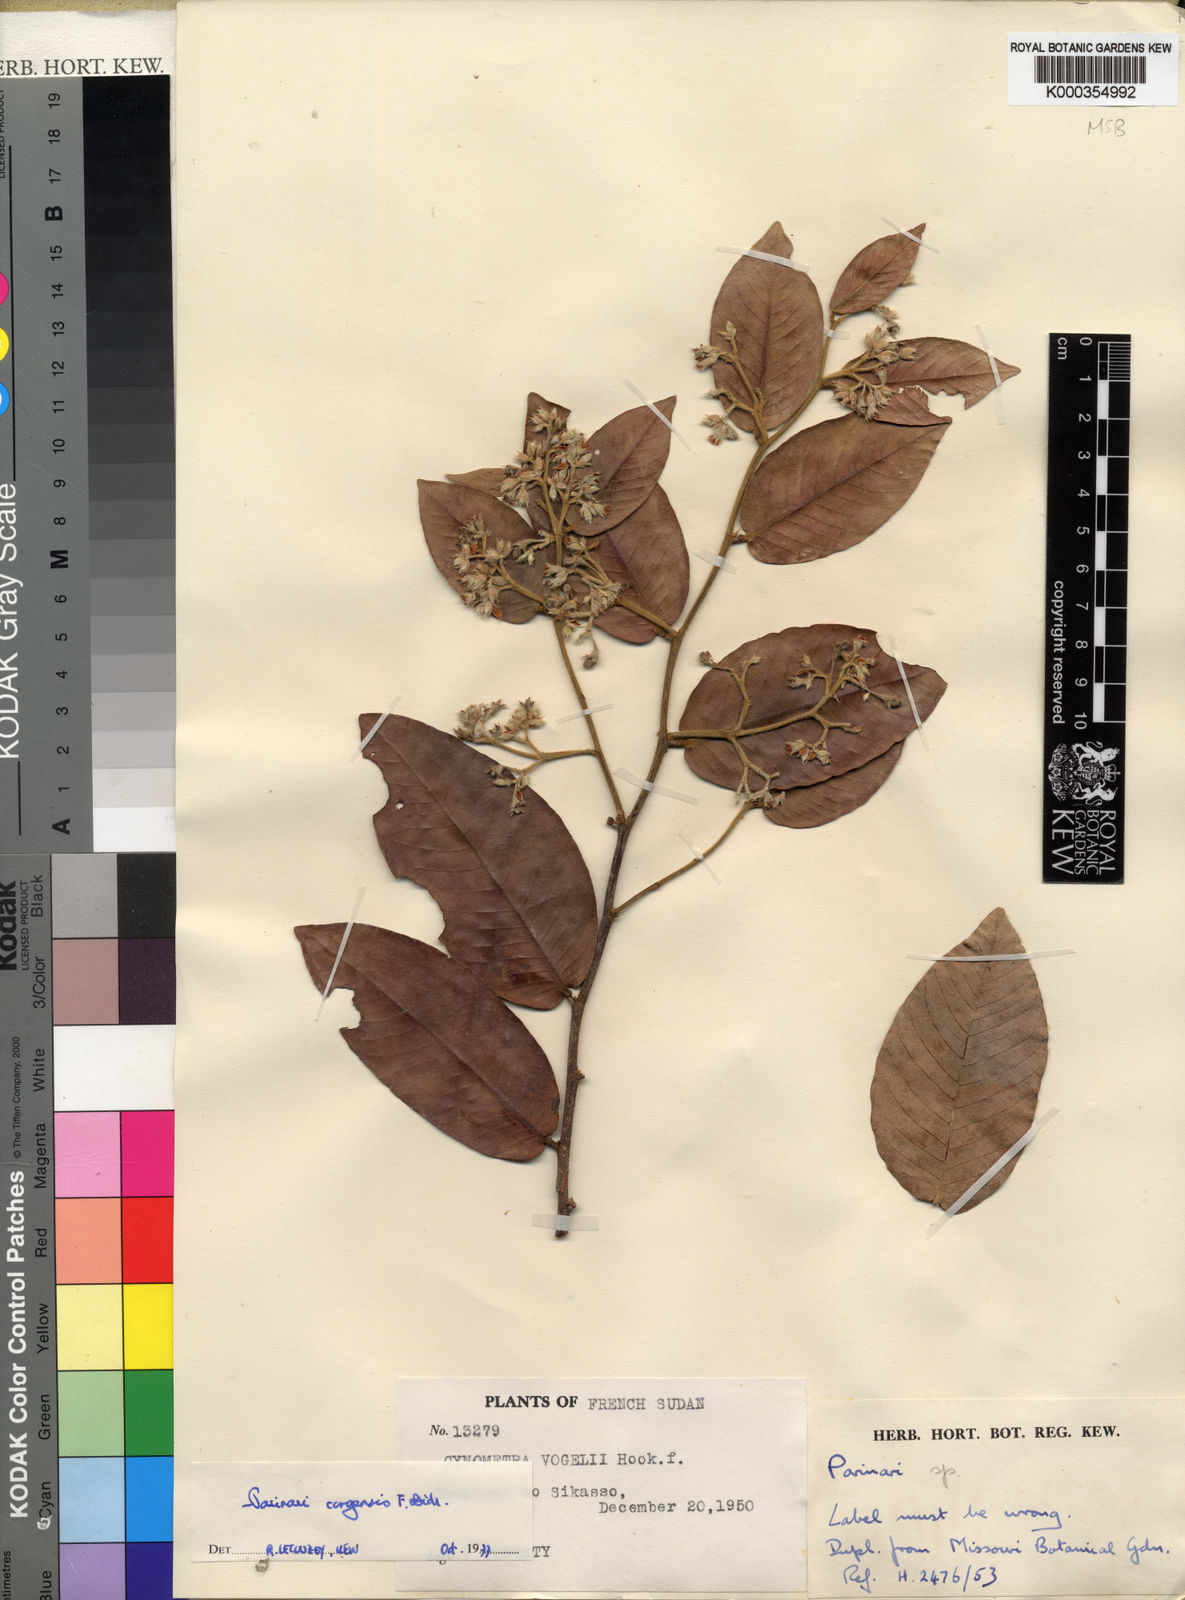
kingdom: Plantae
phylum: Tracheophyta
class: Magnoliopsida
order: Malpighiales
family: Chrysobalanaceae
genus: Parinari
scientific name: Parinari congensis
